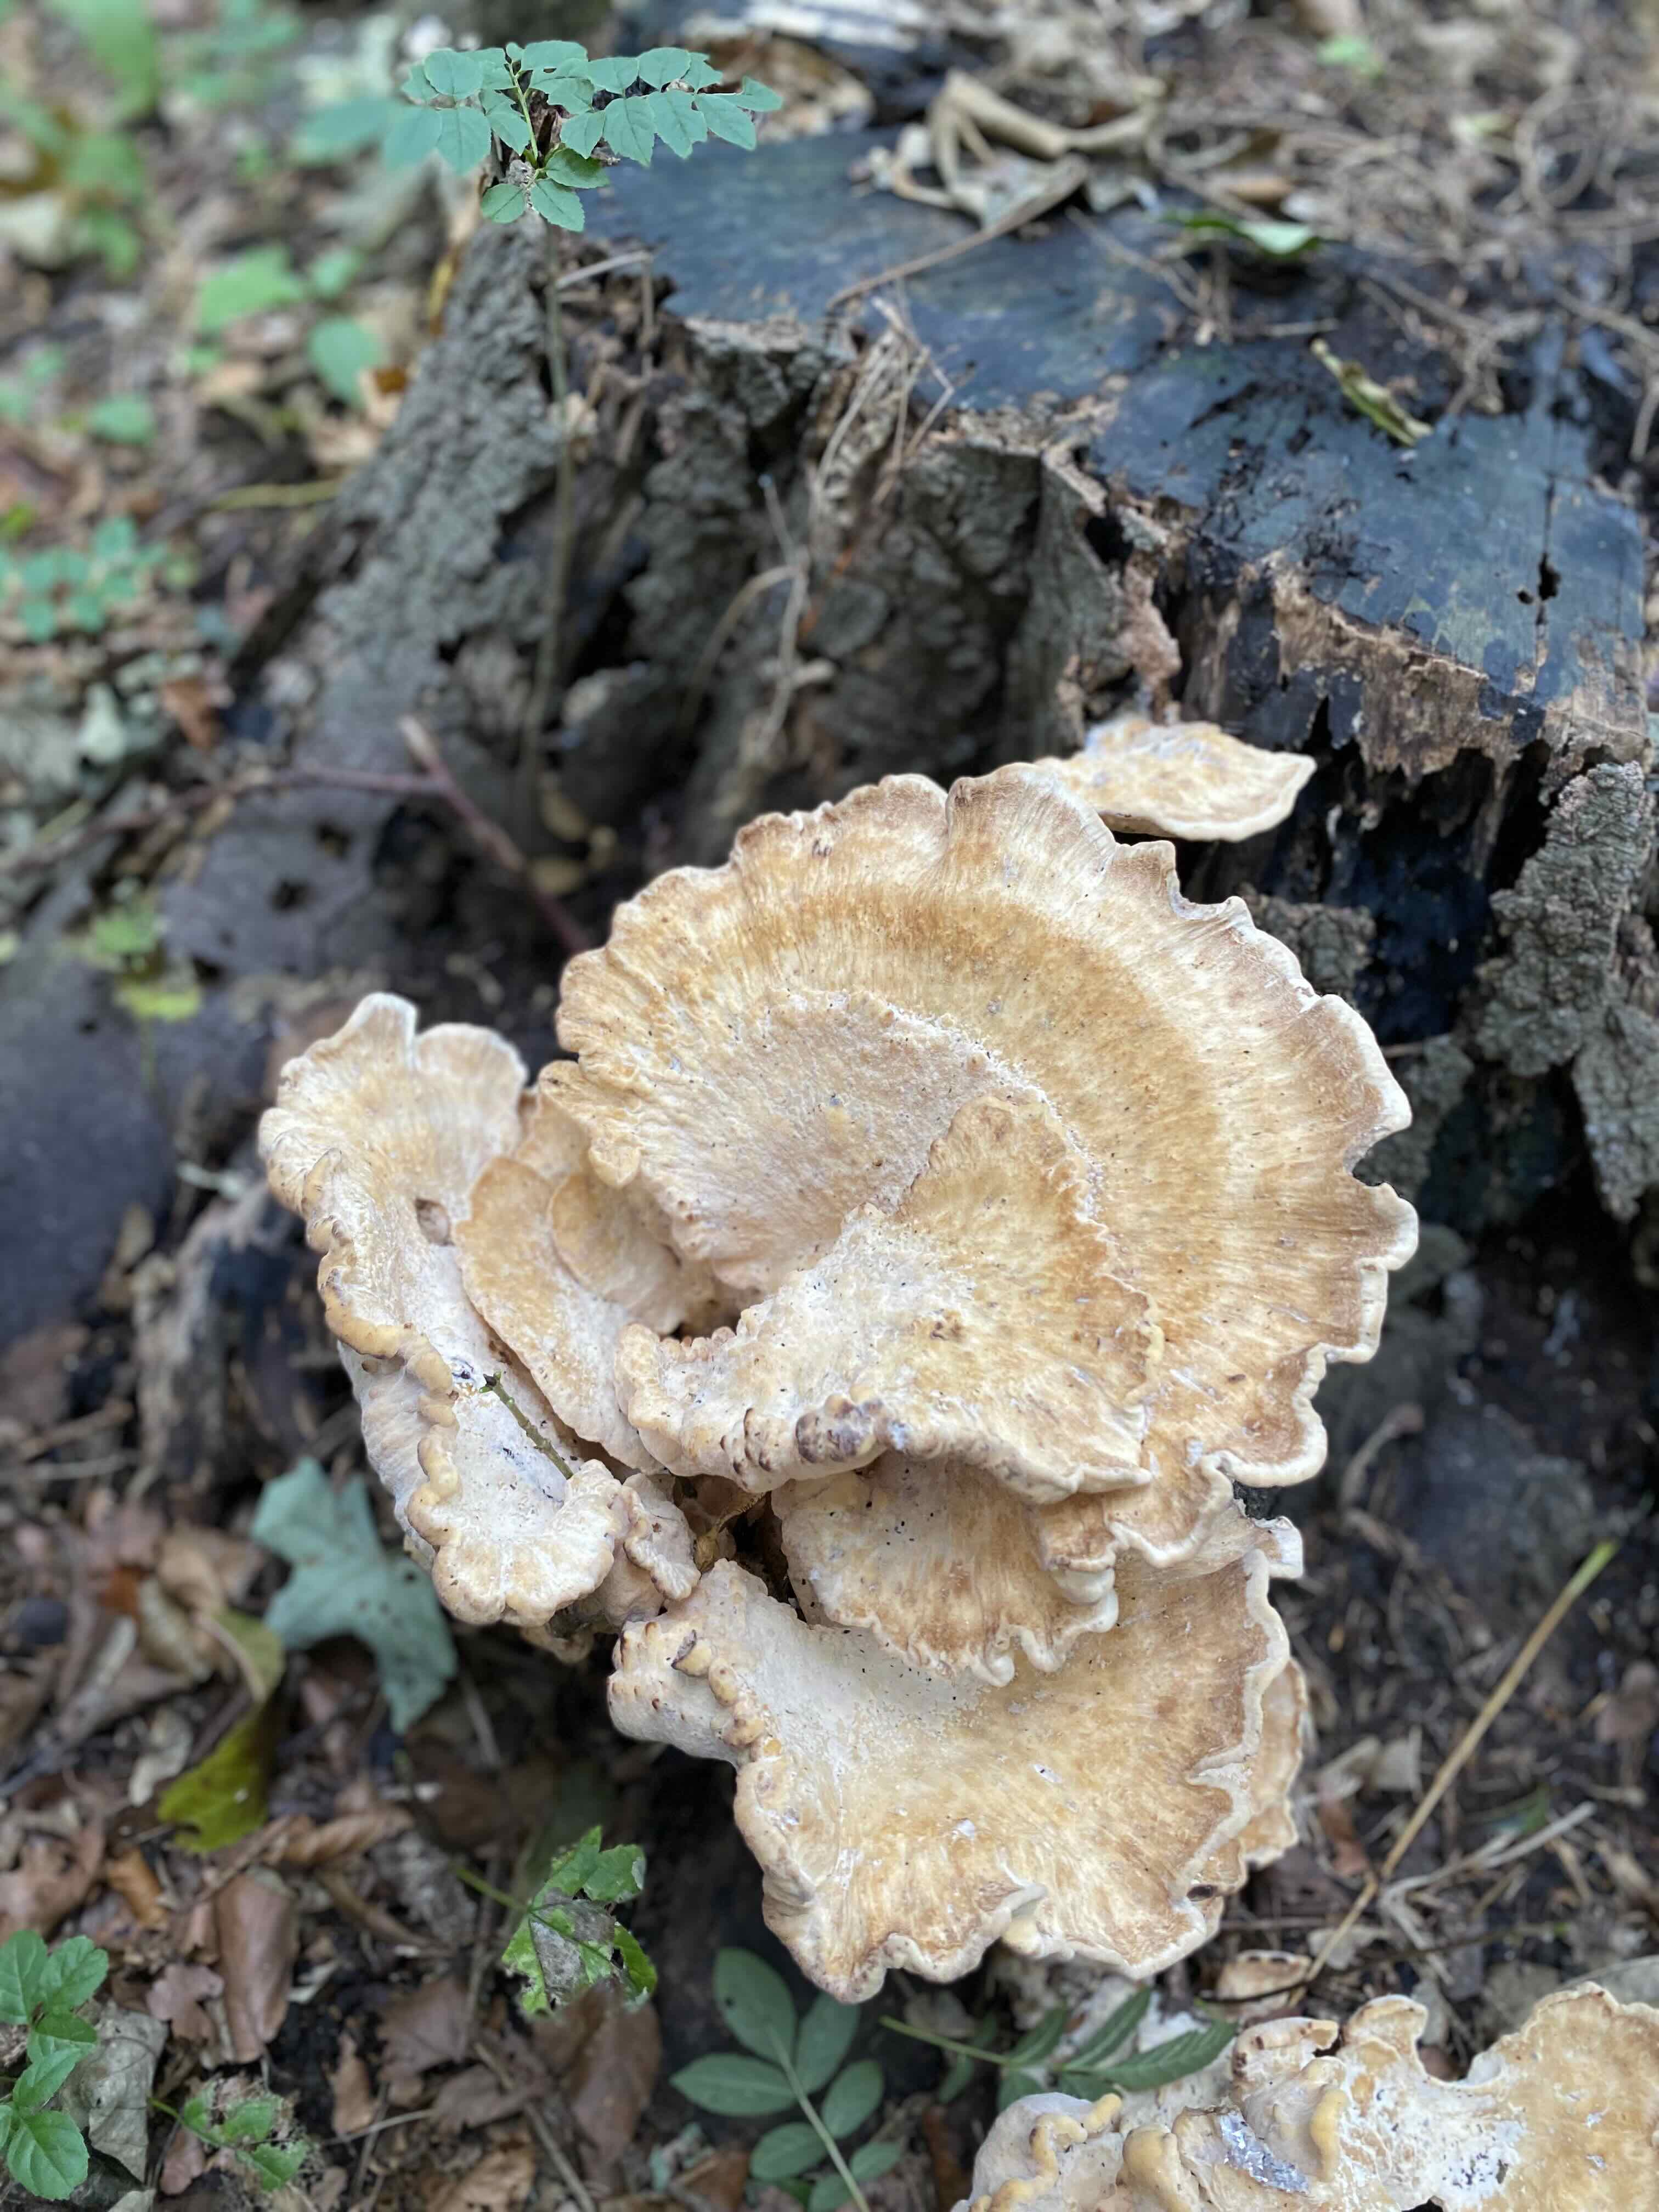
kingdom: Fungi
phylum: Basidiomycota
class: Agaricomycetes
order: Polyporales
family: Meripilaceae
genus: Meripilus
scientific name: Meripilus giganteus
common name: kæmpeporesvamp
